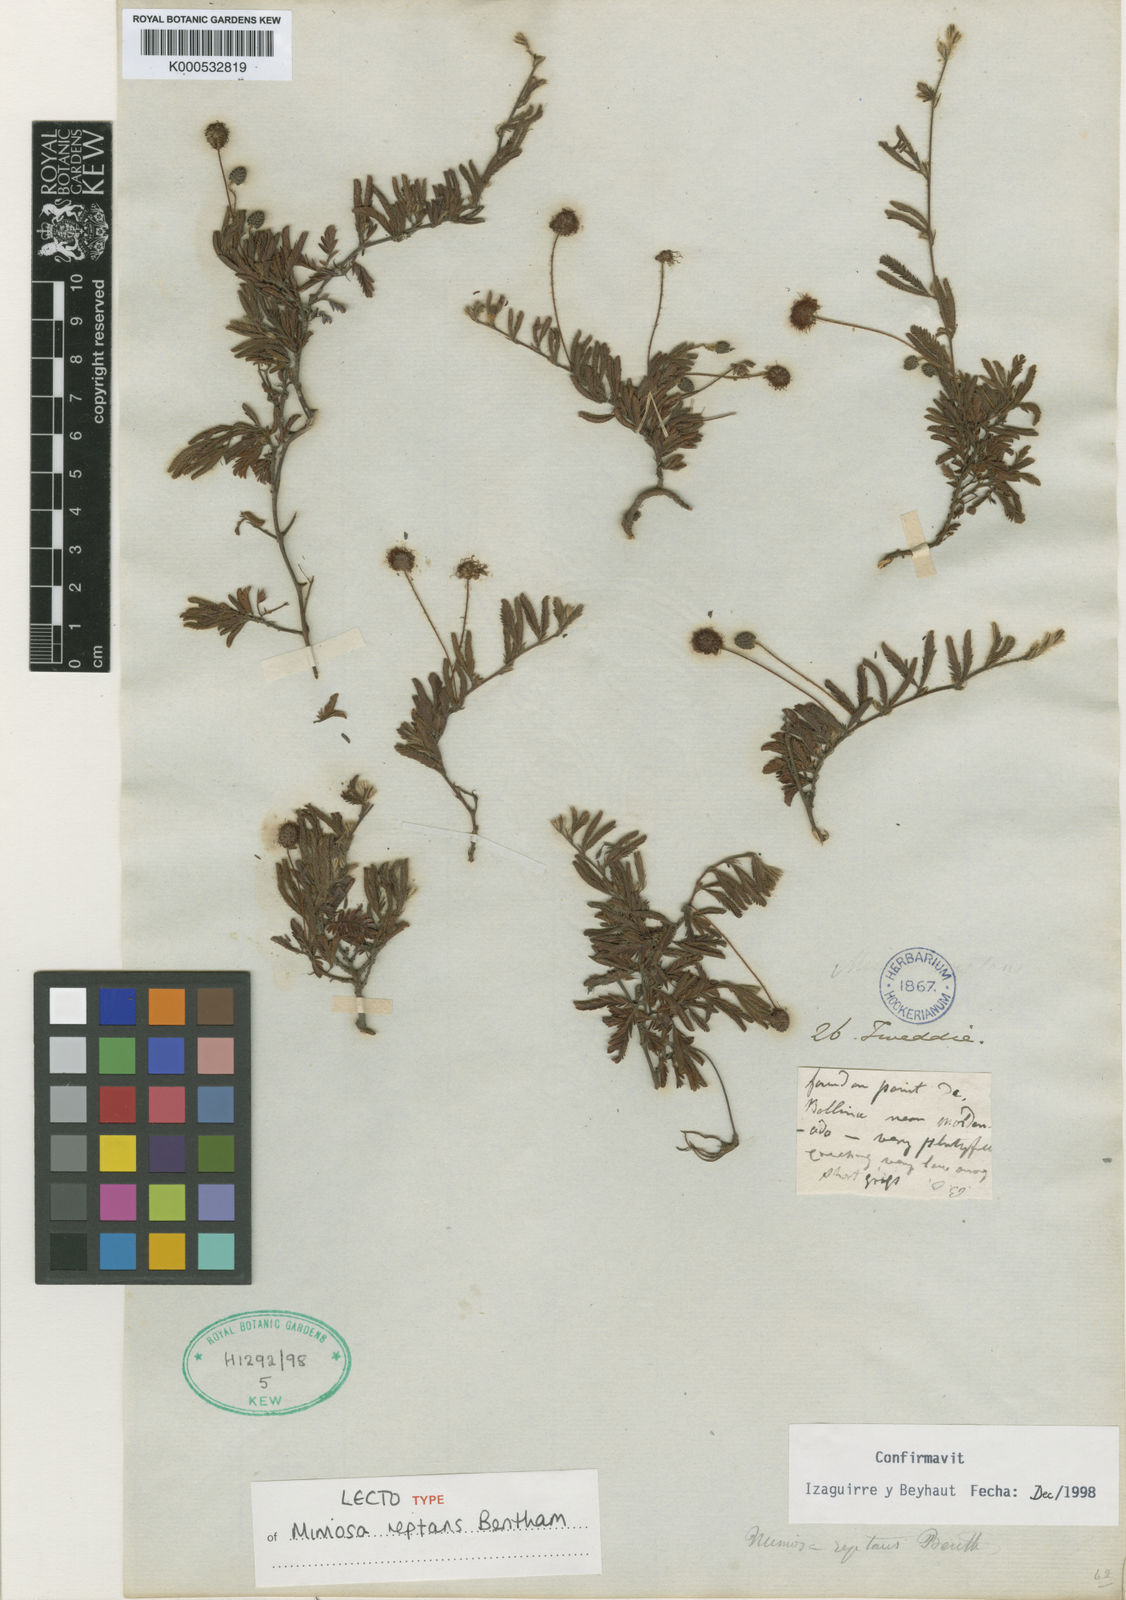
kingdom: Plantae
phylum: Tracheophyta
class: Magnoliopsida
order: Fabales
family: Fabaceae
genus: Mimosa
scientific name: Mimosa reptans
